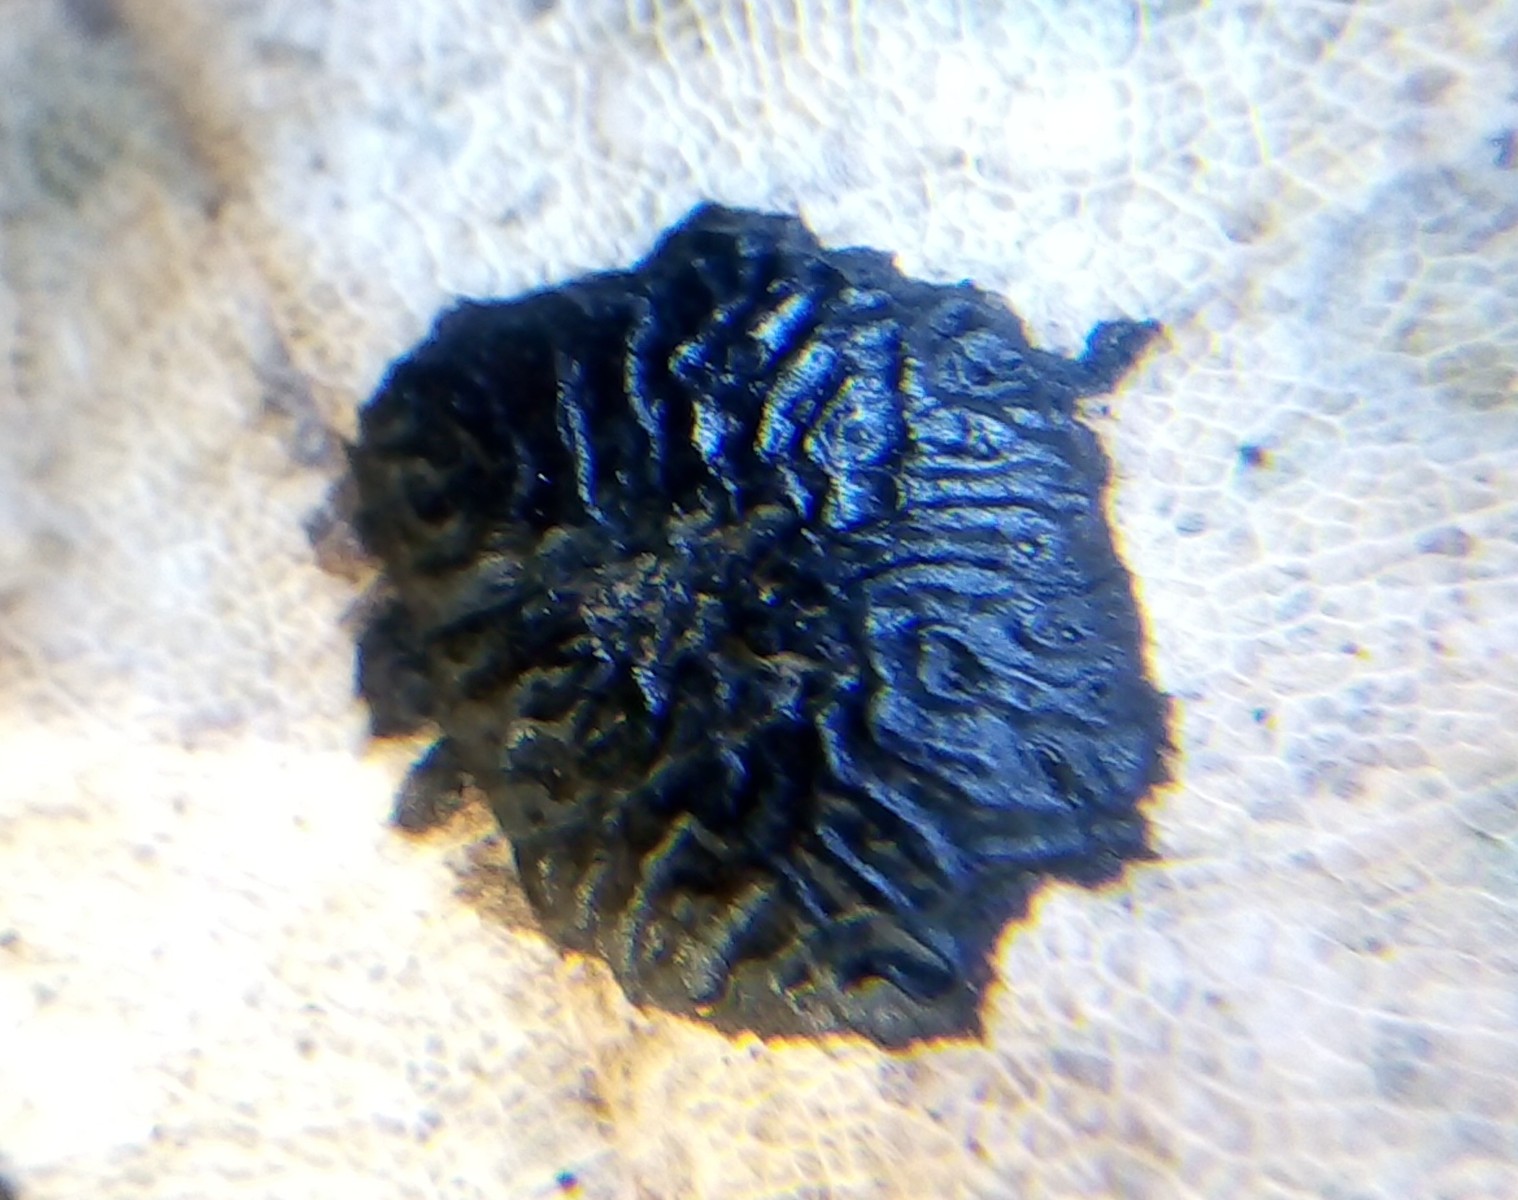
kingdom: Fungi
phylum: Ascomycota
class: Leotiomycetes
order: Rhytismatales
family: Rhytismataceae
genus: Rhytisma
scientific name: Rhytisma acerinum
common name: ahorn-rynkeplet
